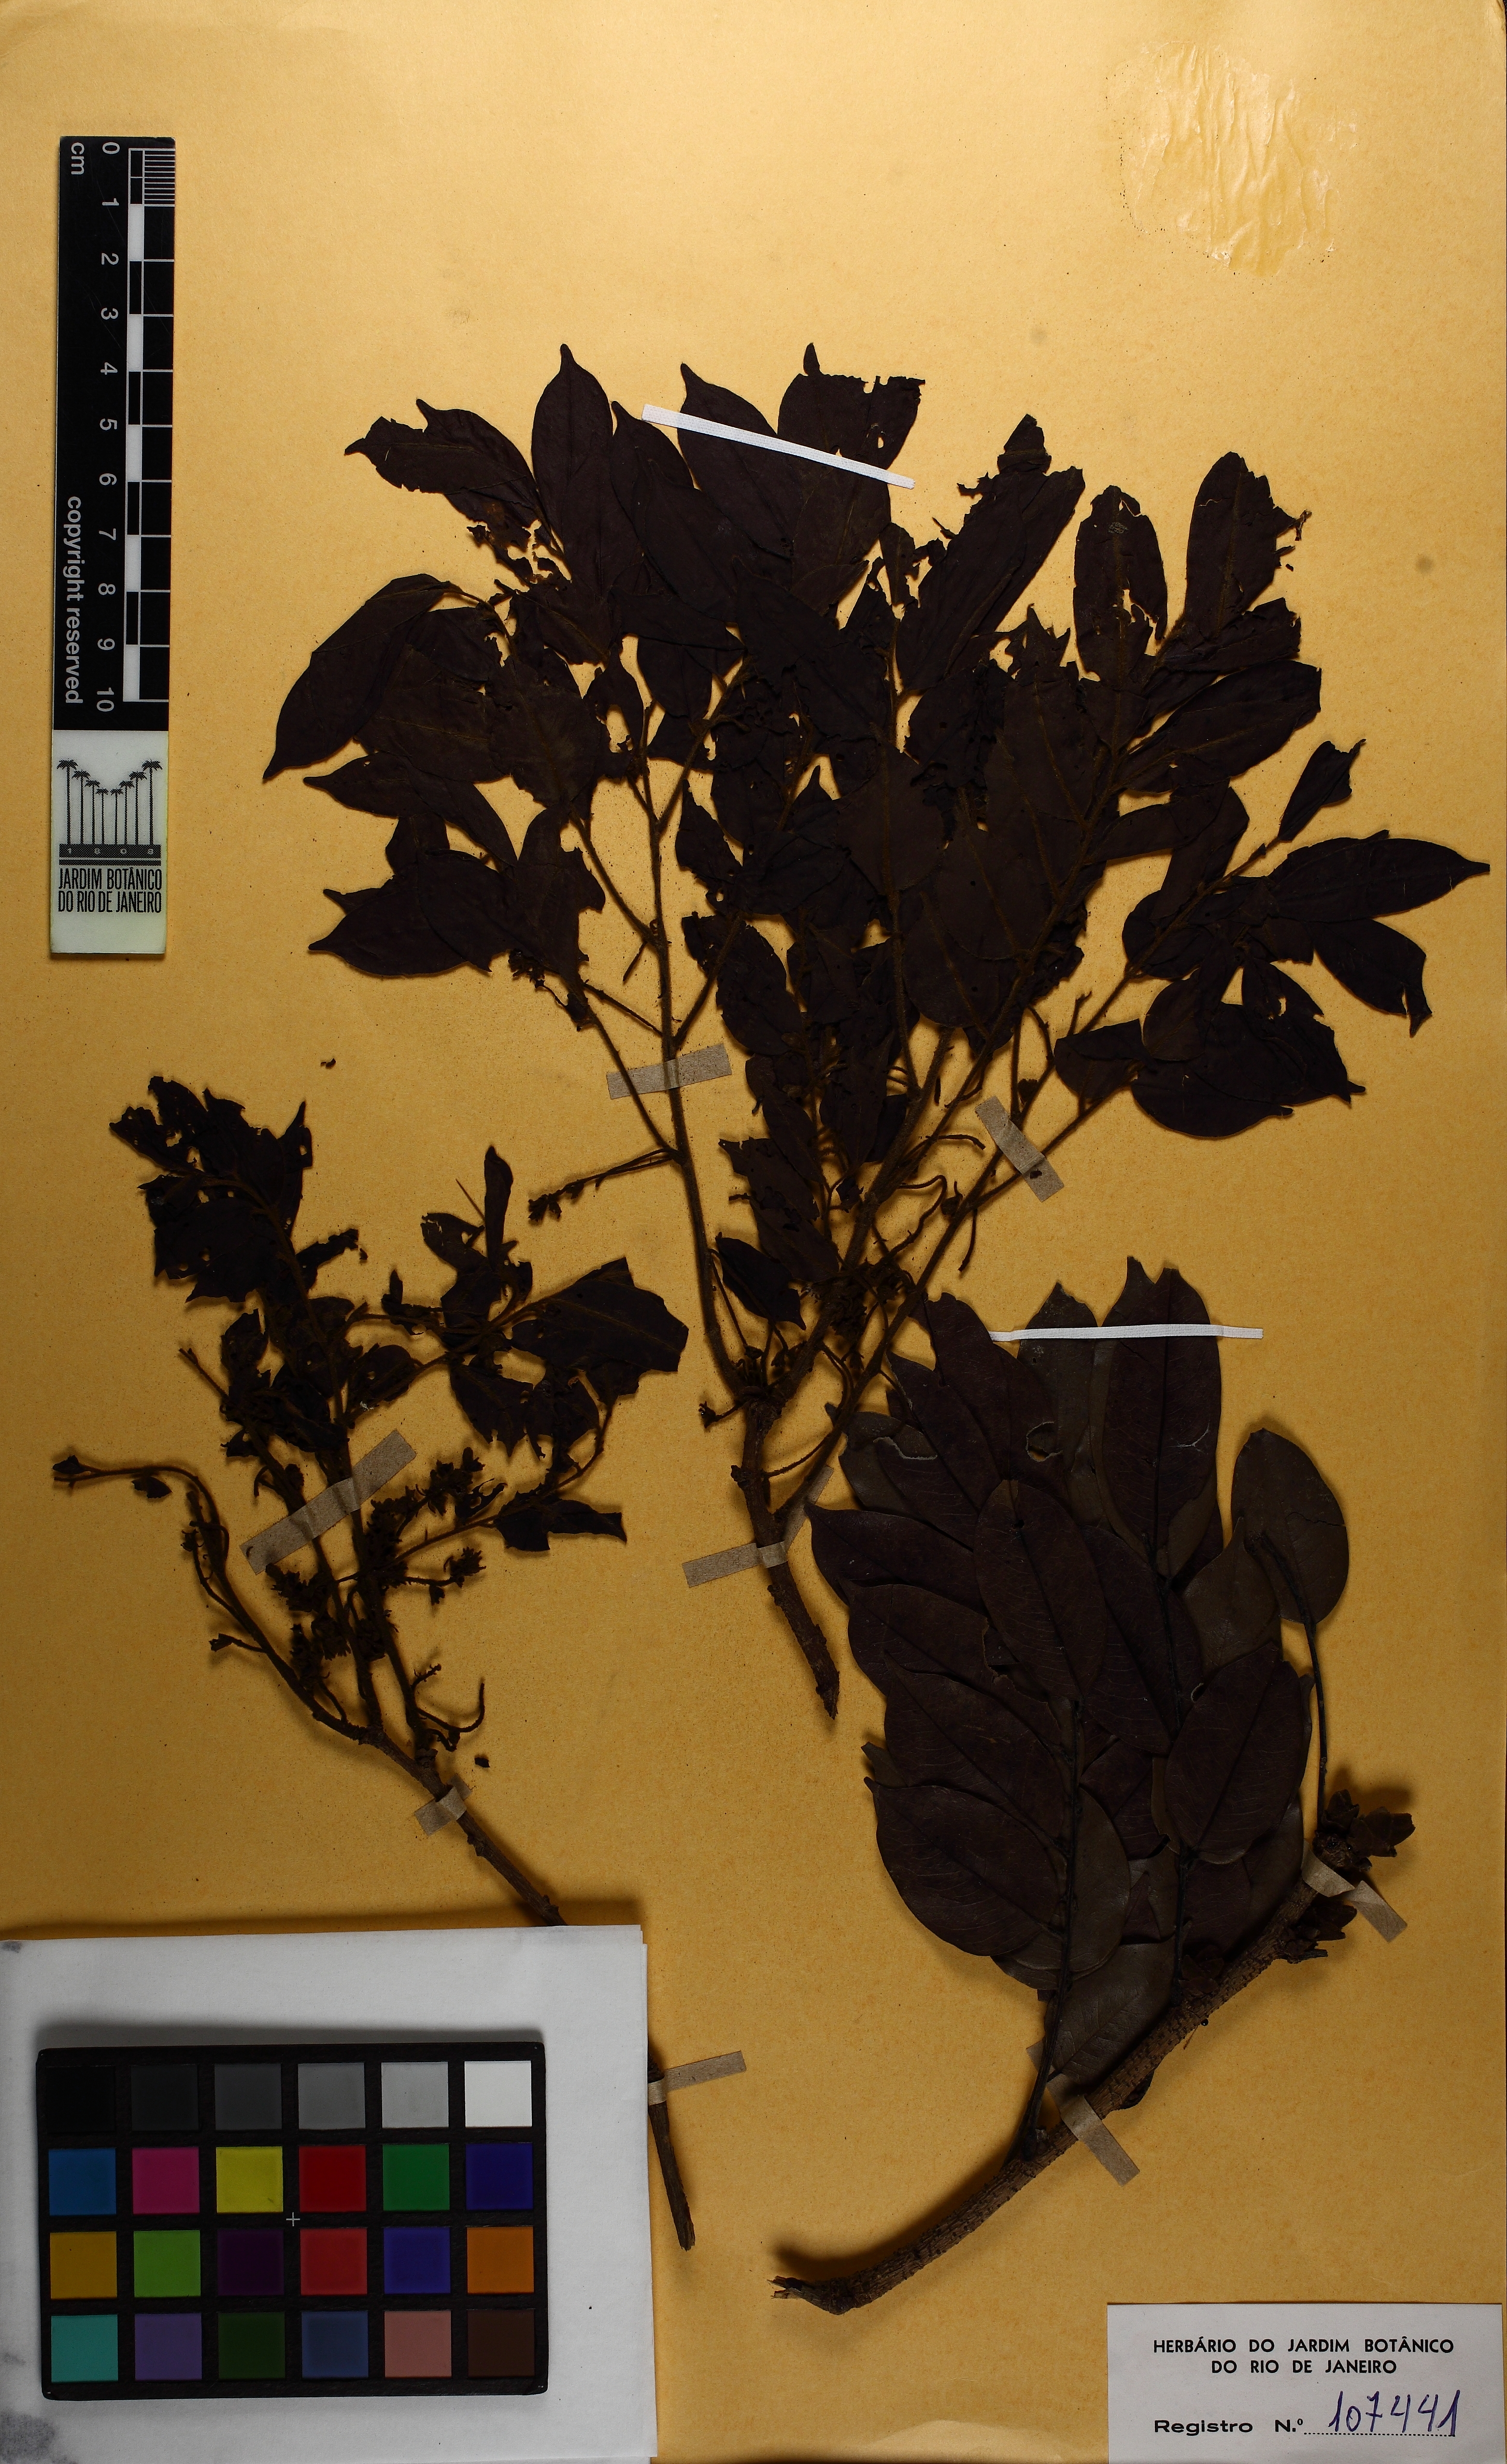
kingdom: Plantae
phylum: Tracheophyta
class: Magnoliopsida
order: Fabales
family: Fabaceae
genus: Machaerium
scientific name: Machaerium brasiliense
